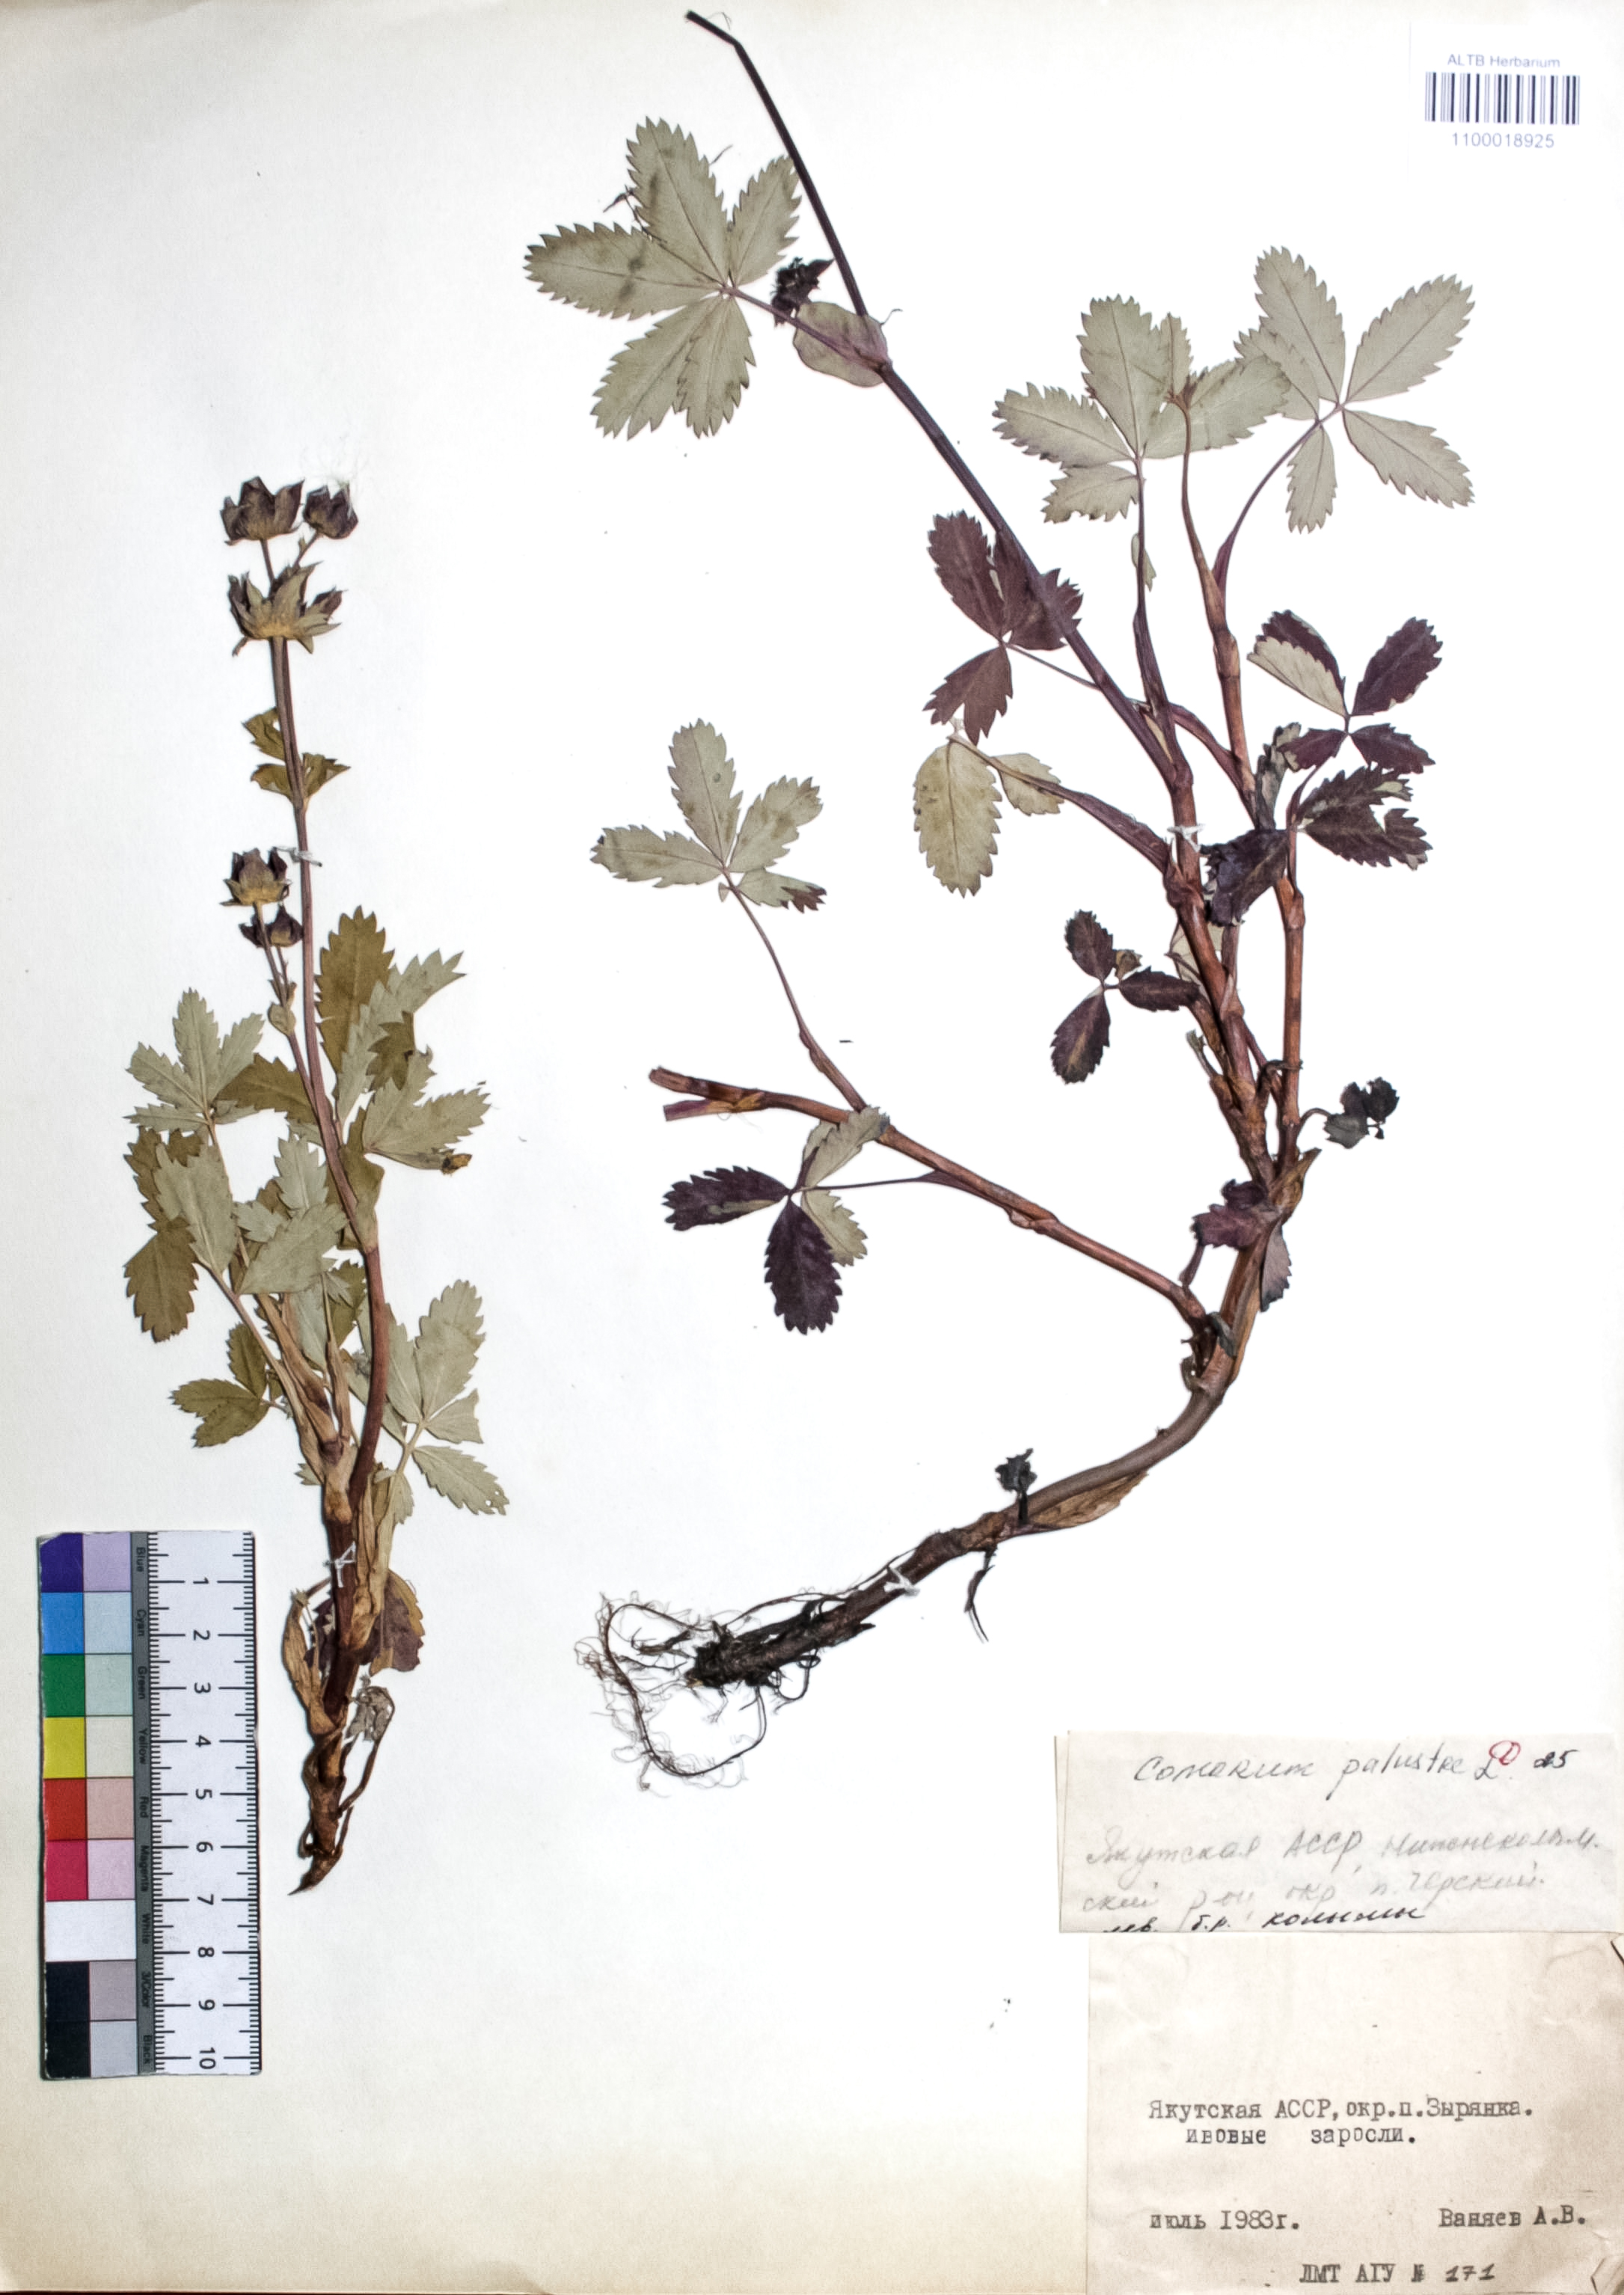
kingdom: Plantae
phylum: Tracheophyta
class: Magnoliopsida
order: Rosales
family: Rosaceae
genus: Comarum
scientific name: Comarum palustre
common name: Marsh cinquefoil
